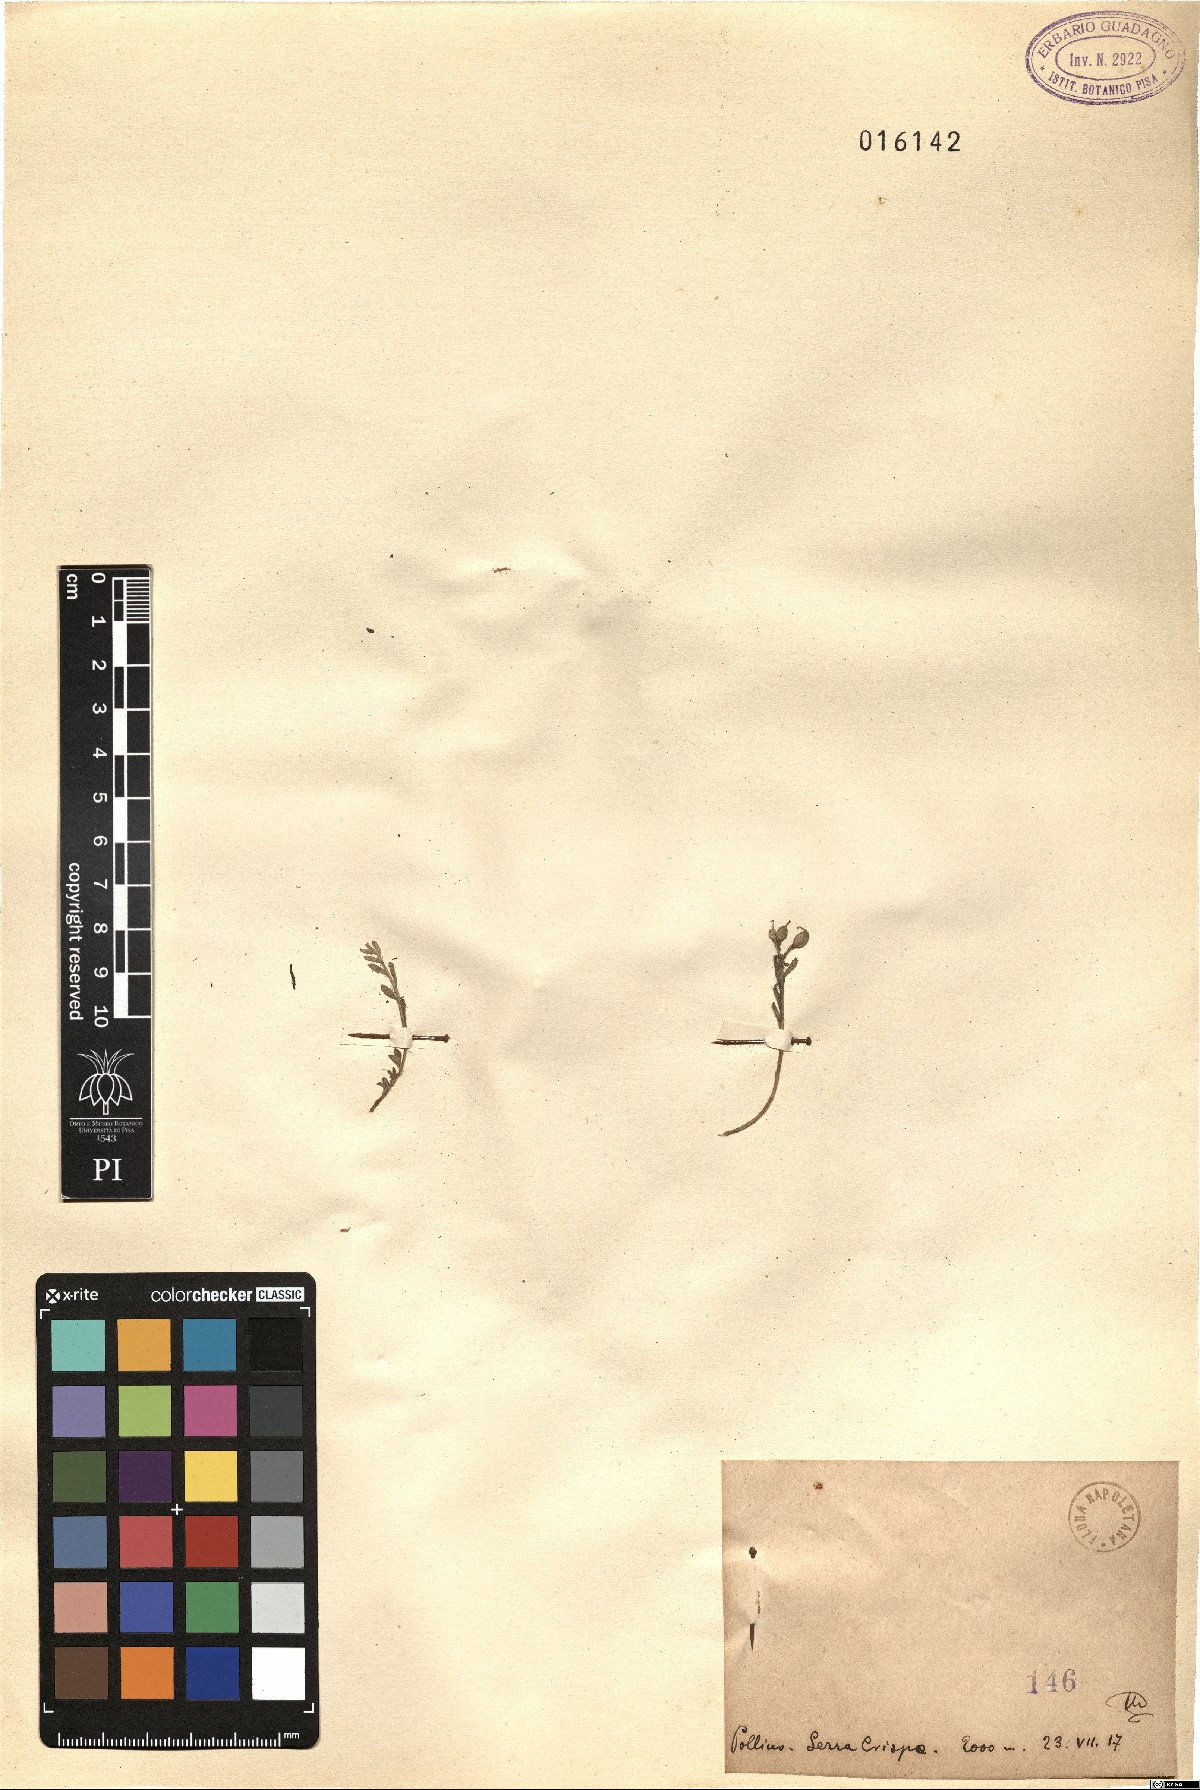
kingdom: Plantae
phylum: Tracheophyta
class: Magnoliopsida
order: Brassicales
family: Brassicaceae
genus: Alyssum
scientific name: Alyssum
